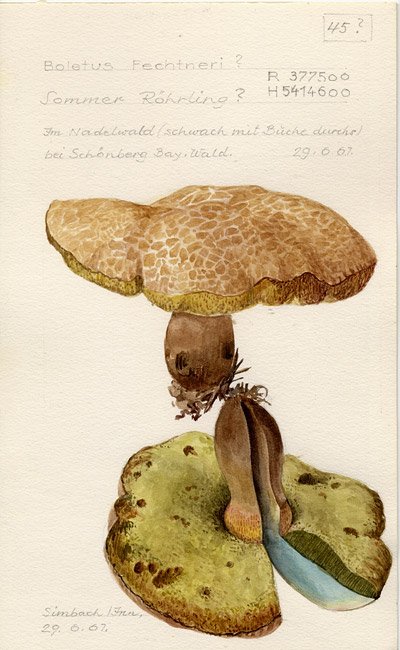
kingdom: Fungi
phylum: Basidiomycota
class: Agaricomycetes
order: Boletales
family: Boletaceae
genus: Butyriboletus
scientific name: Butyriboletus fechtneri
